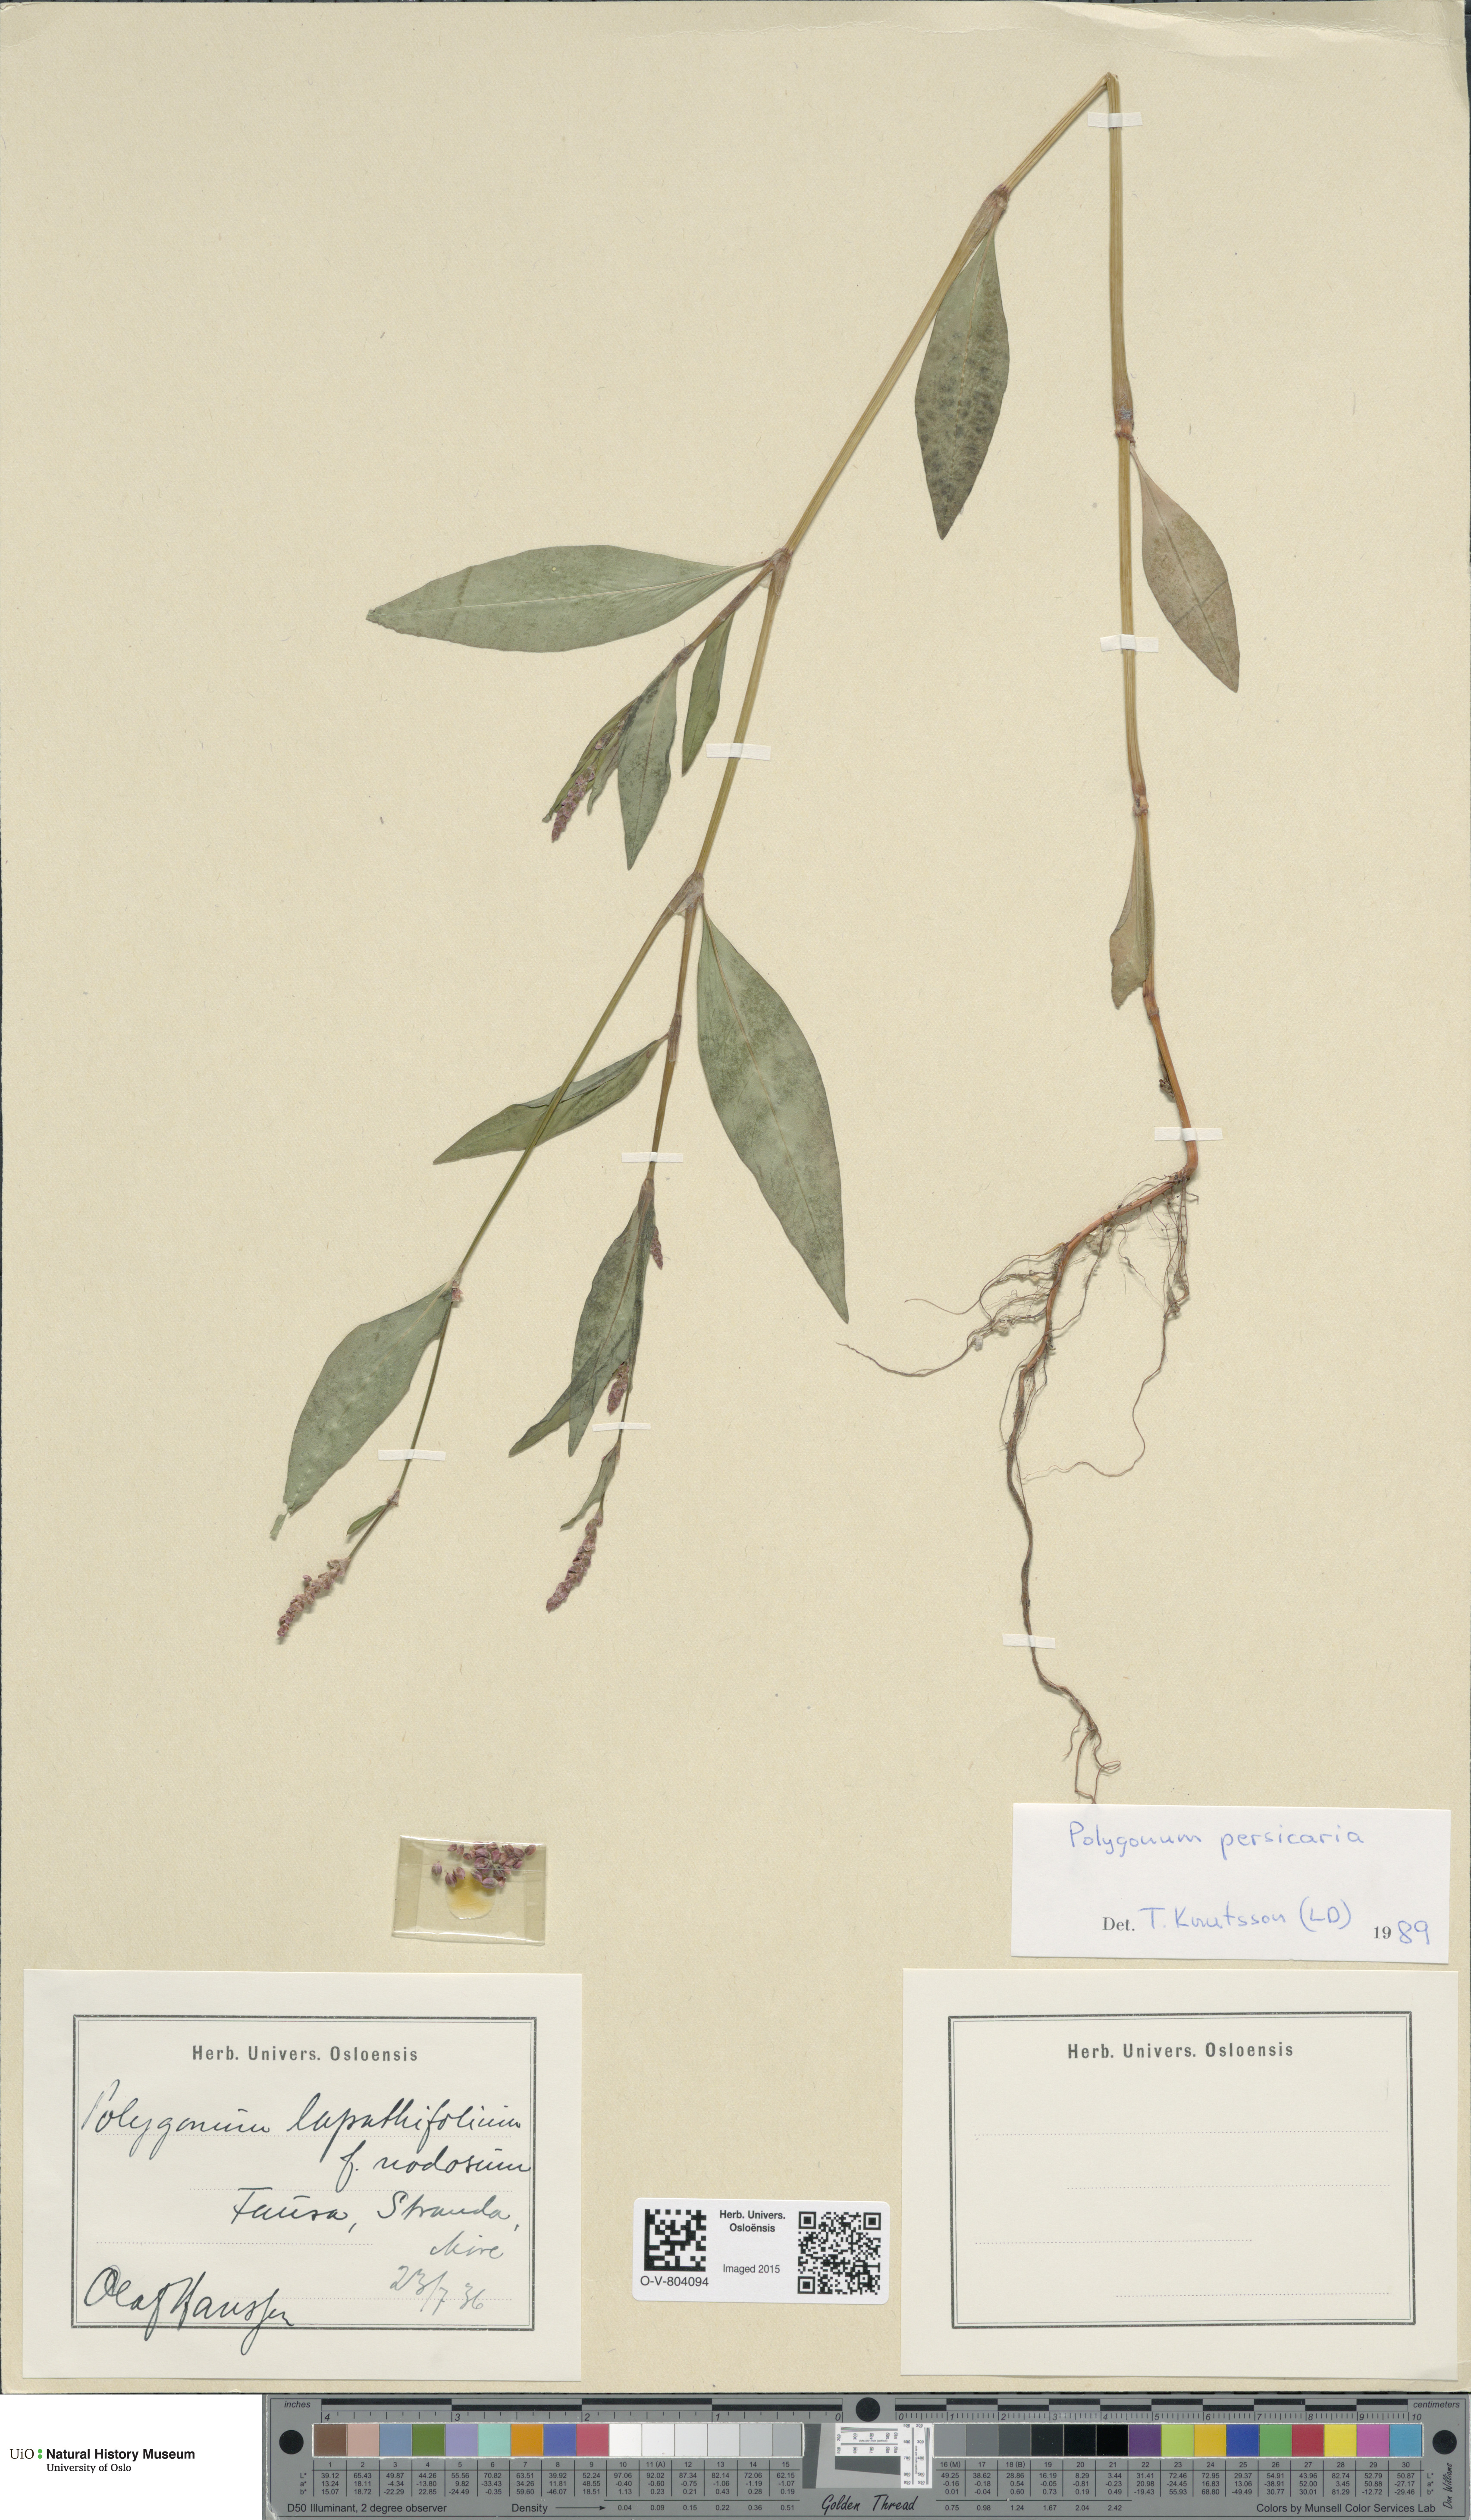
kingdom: Plantae
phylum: Tracheophyta
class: Magnoliopsida
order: Caryophyllales
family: Polygonaceae
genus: Persicaria
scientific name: Persicaria maculosa
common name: Redshank
